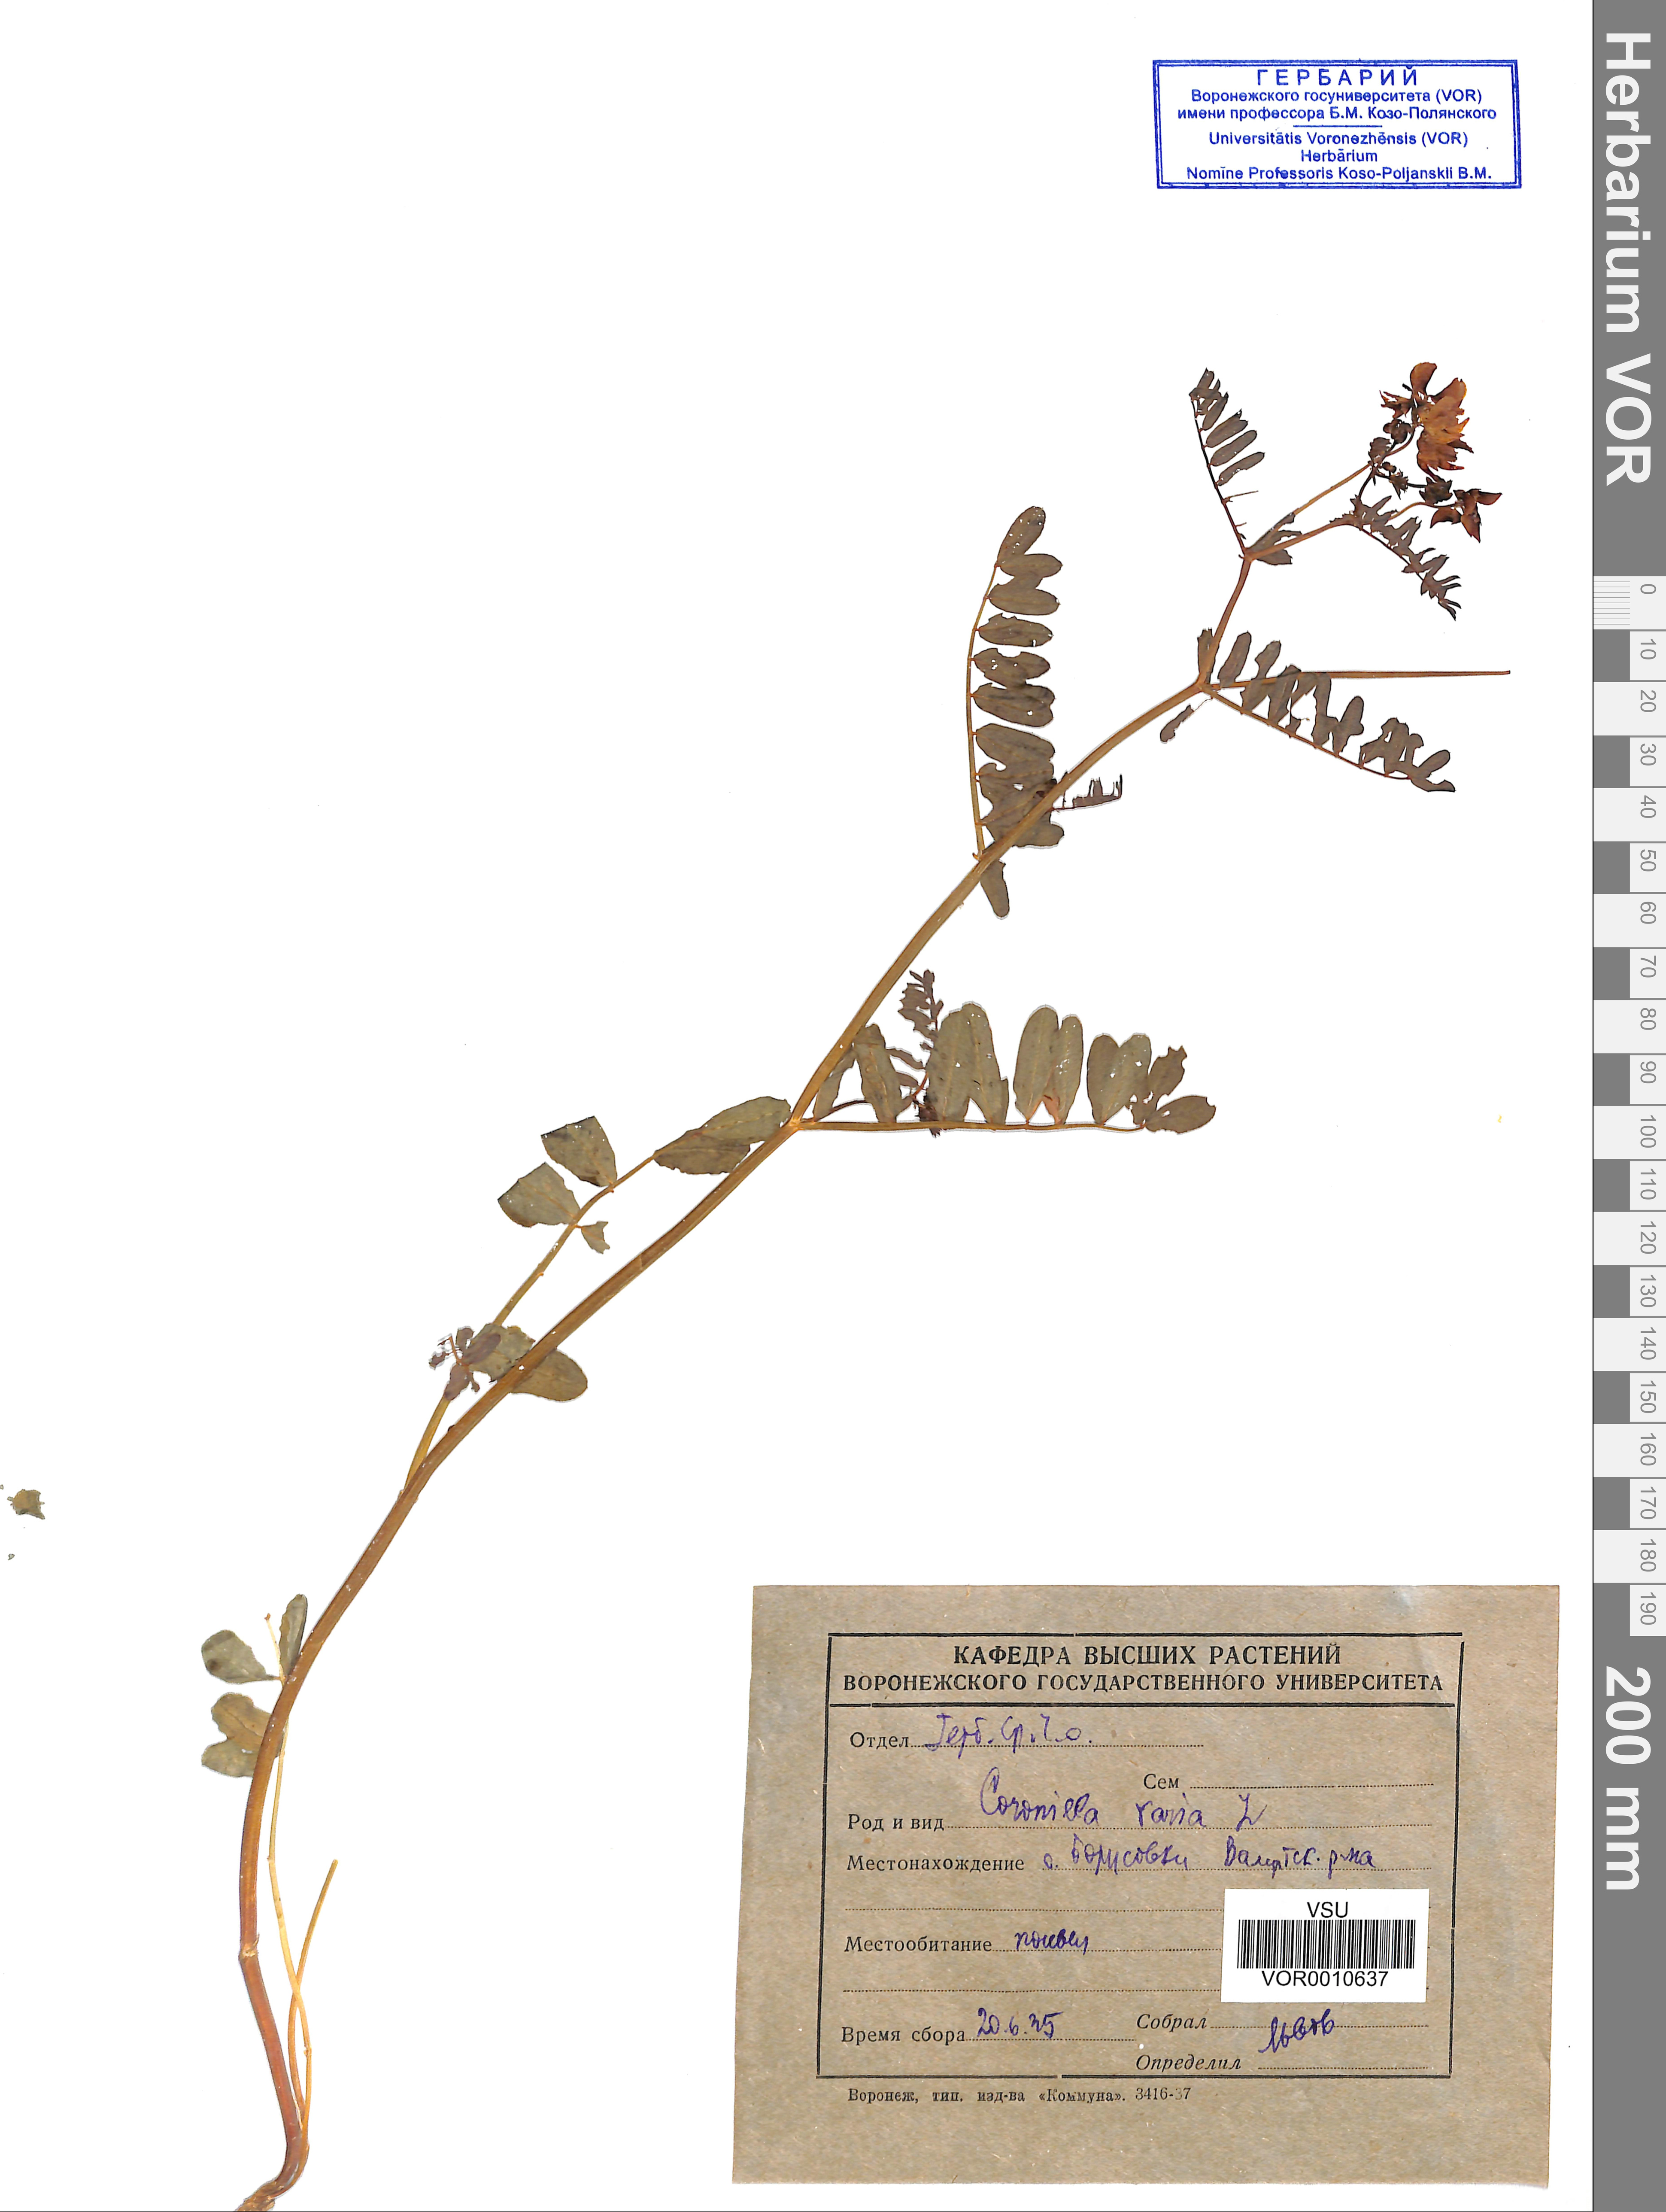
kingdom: Plantae
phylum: Tracheophyta
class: Magnoliopsida
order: Fabales
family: Fabaceae
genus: Coronilla
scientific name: Coronilla varia
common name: Crownvetch
